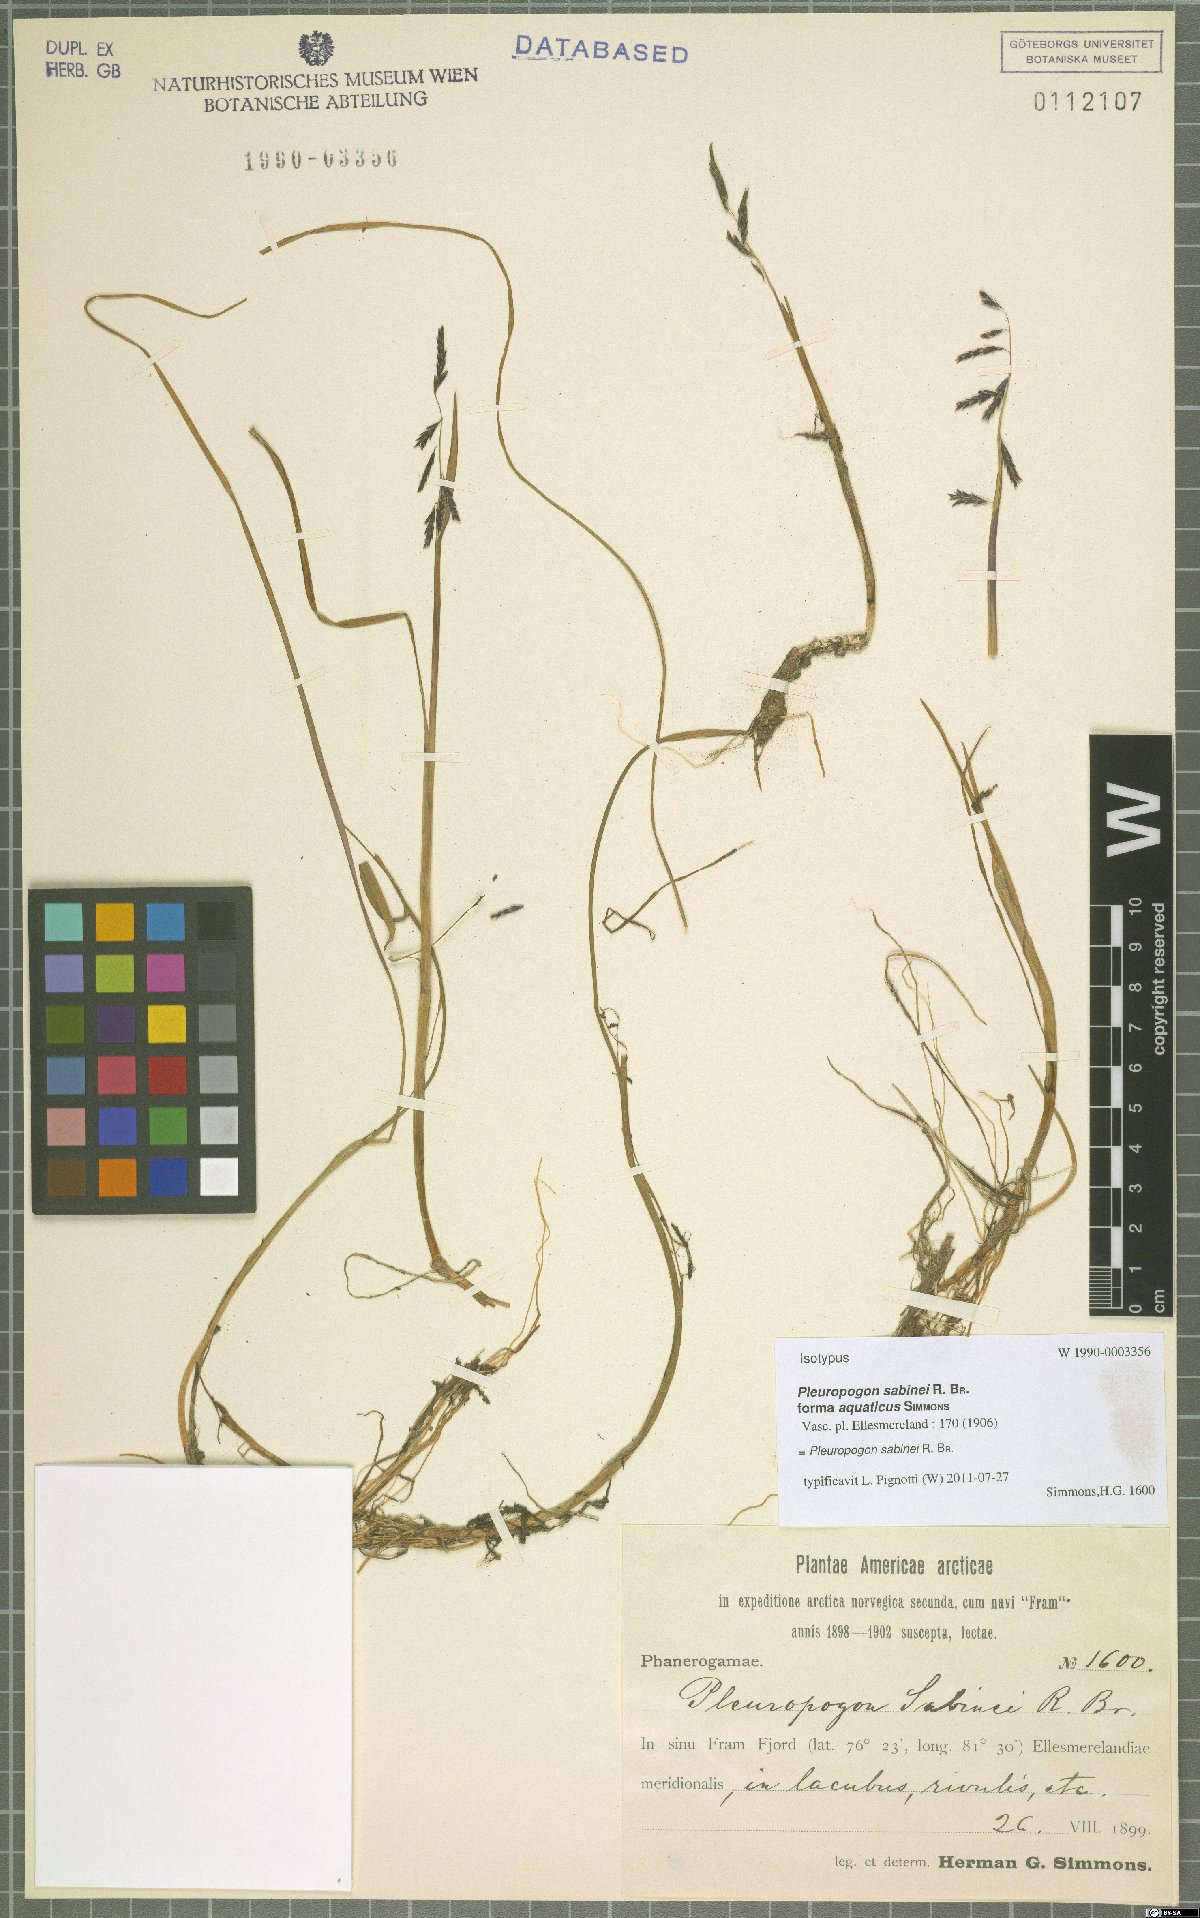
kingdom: Plantae
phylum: Tracheophyta
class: Liliopsida
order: Poales
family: Poaceae
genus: Pleuropogon
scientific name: Pleuropogon sabinei
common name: Sabine's false semaphoregrass
